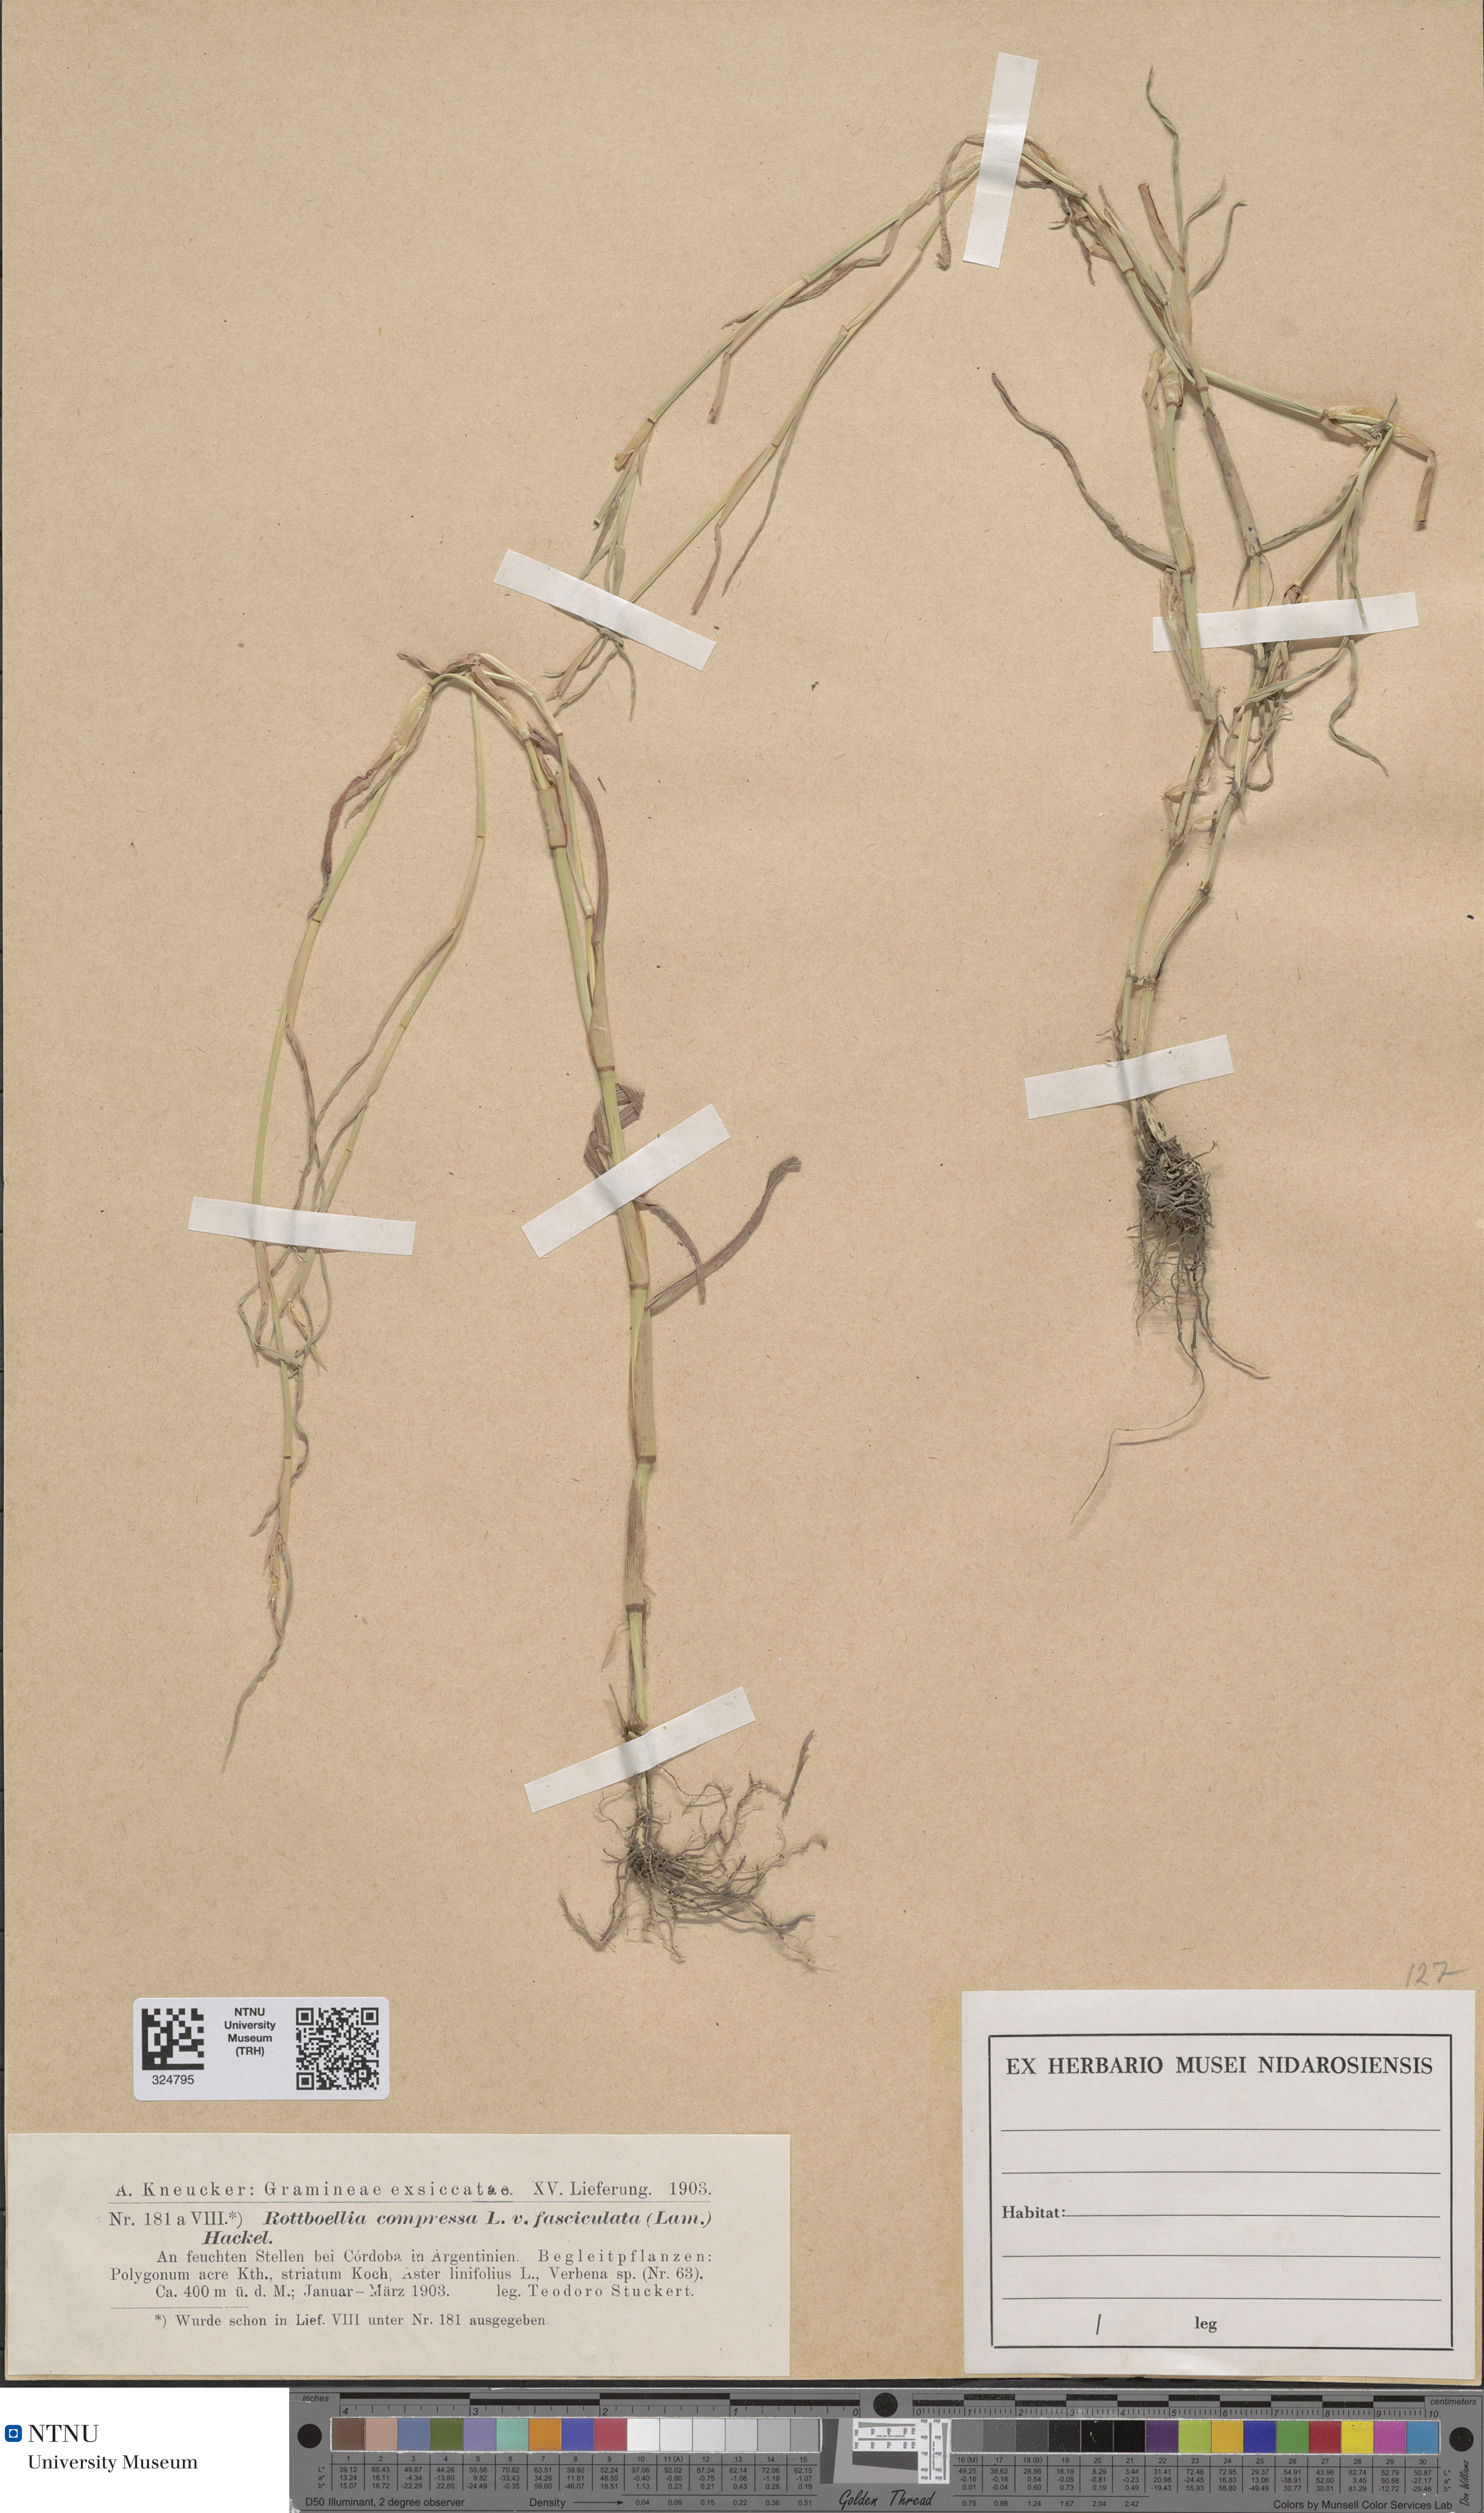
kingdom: Plantae
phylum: Tracheophyta
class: Liliopsida
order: Poales
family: Poaceae
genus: Hemarthria
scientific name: Hemarthria compressa
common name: Whip grass
